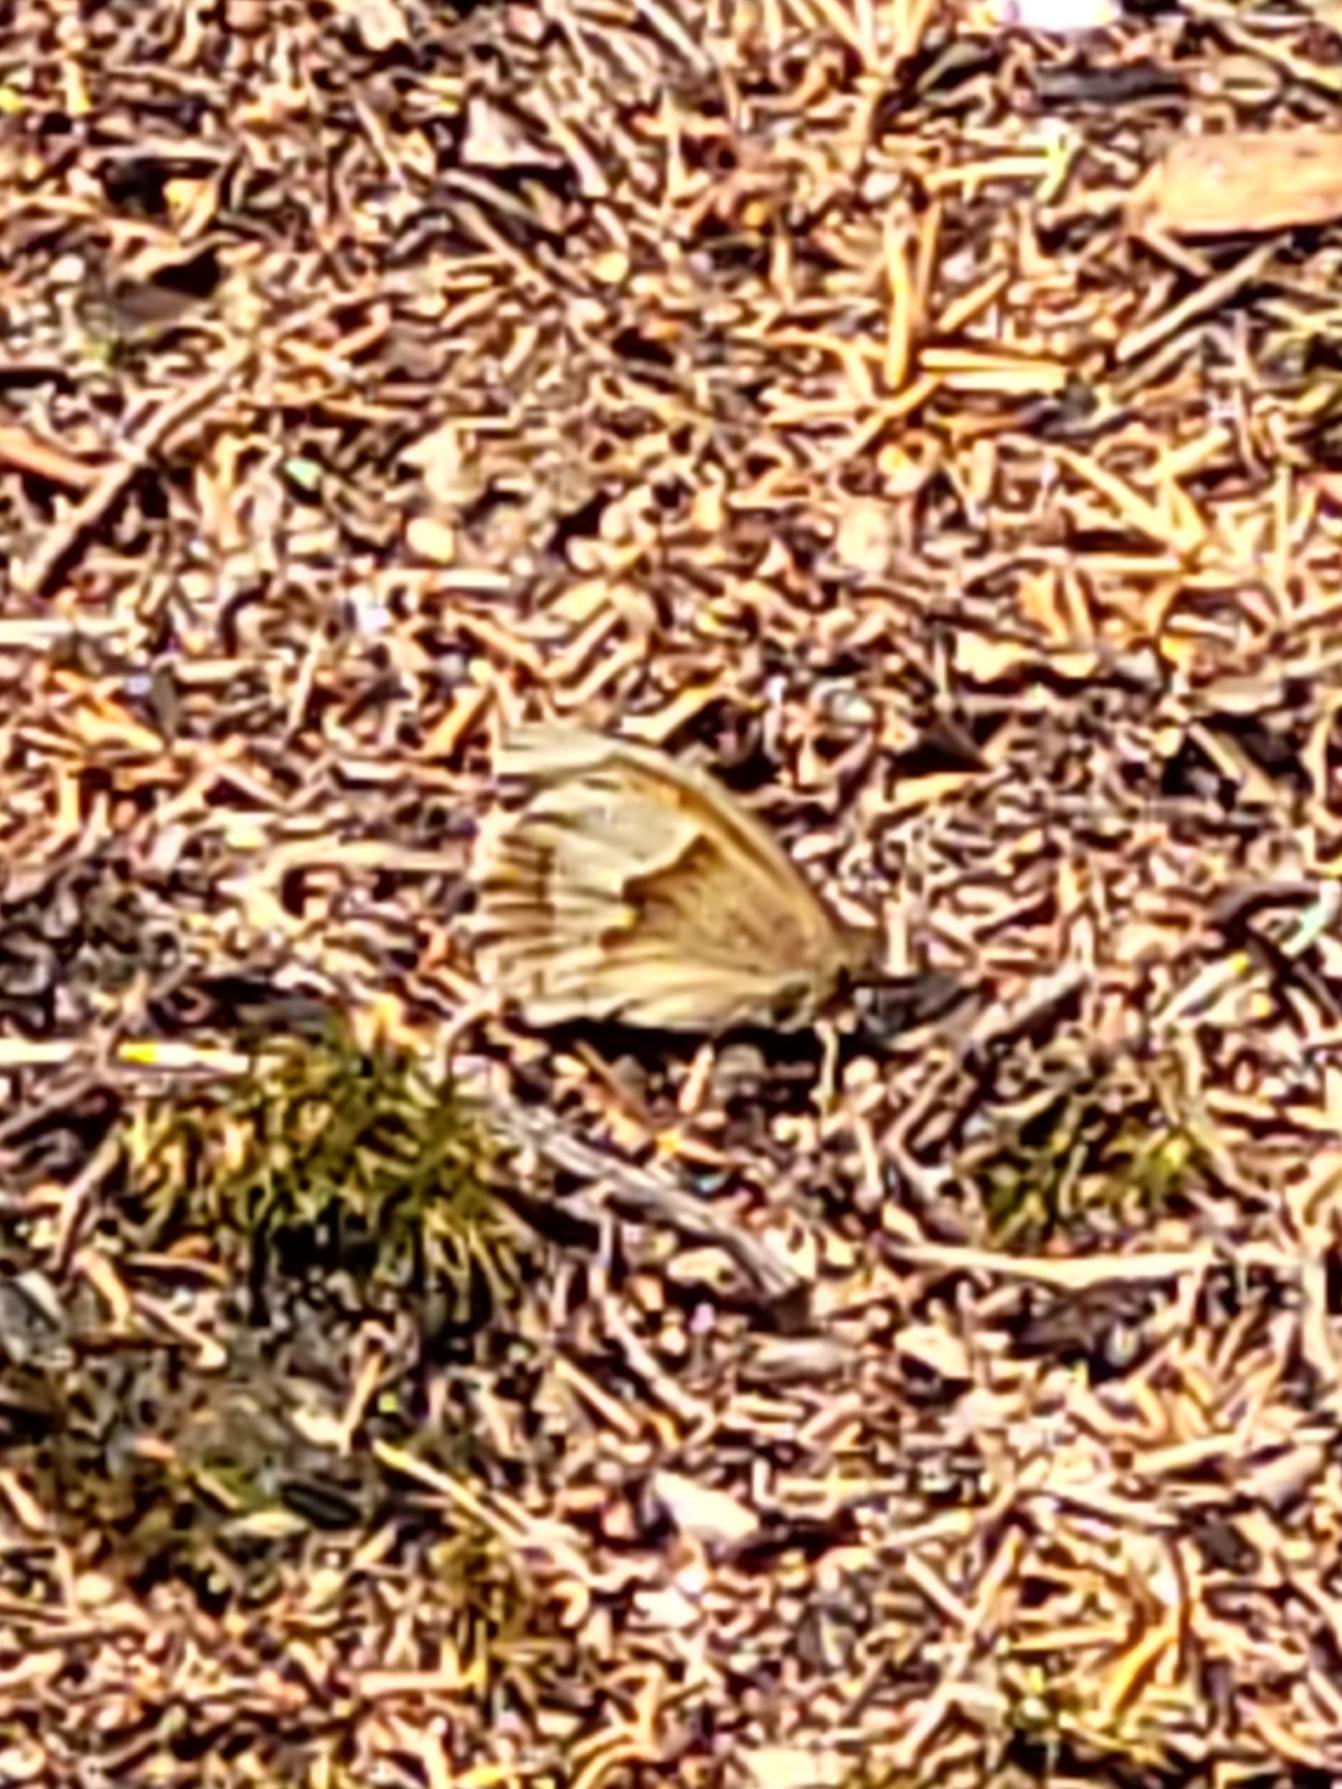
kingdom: Animalia
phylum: Arthropoda
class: Insecta
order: Lepidoptera
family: Nymphalidae
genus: Maniola
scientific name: Maniola jurtina
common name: Græsrandøje
